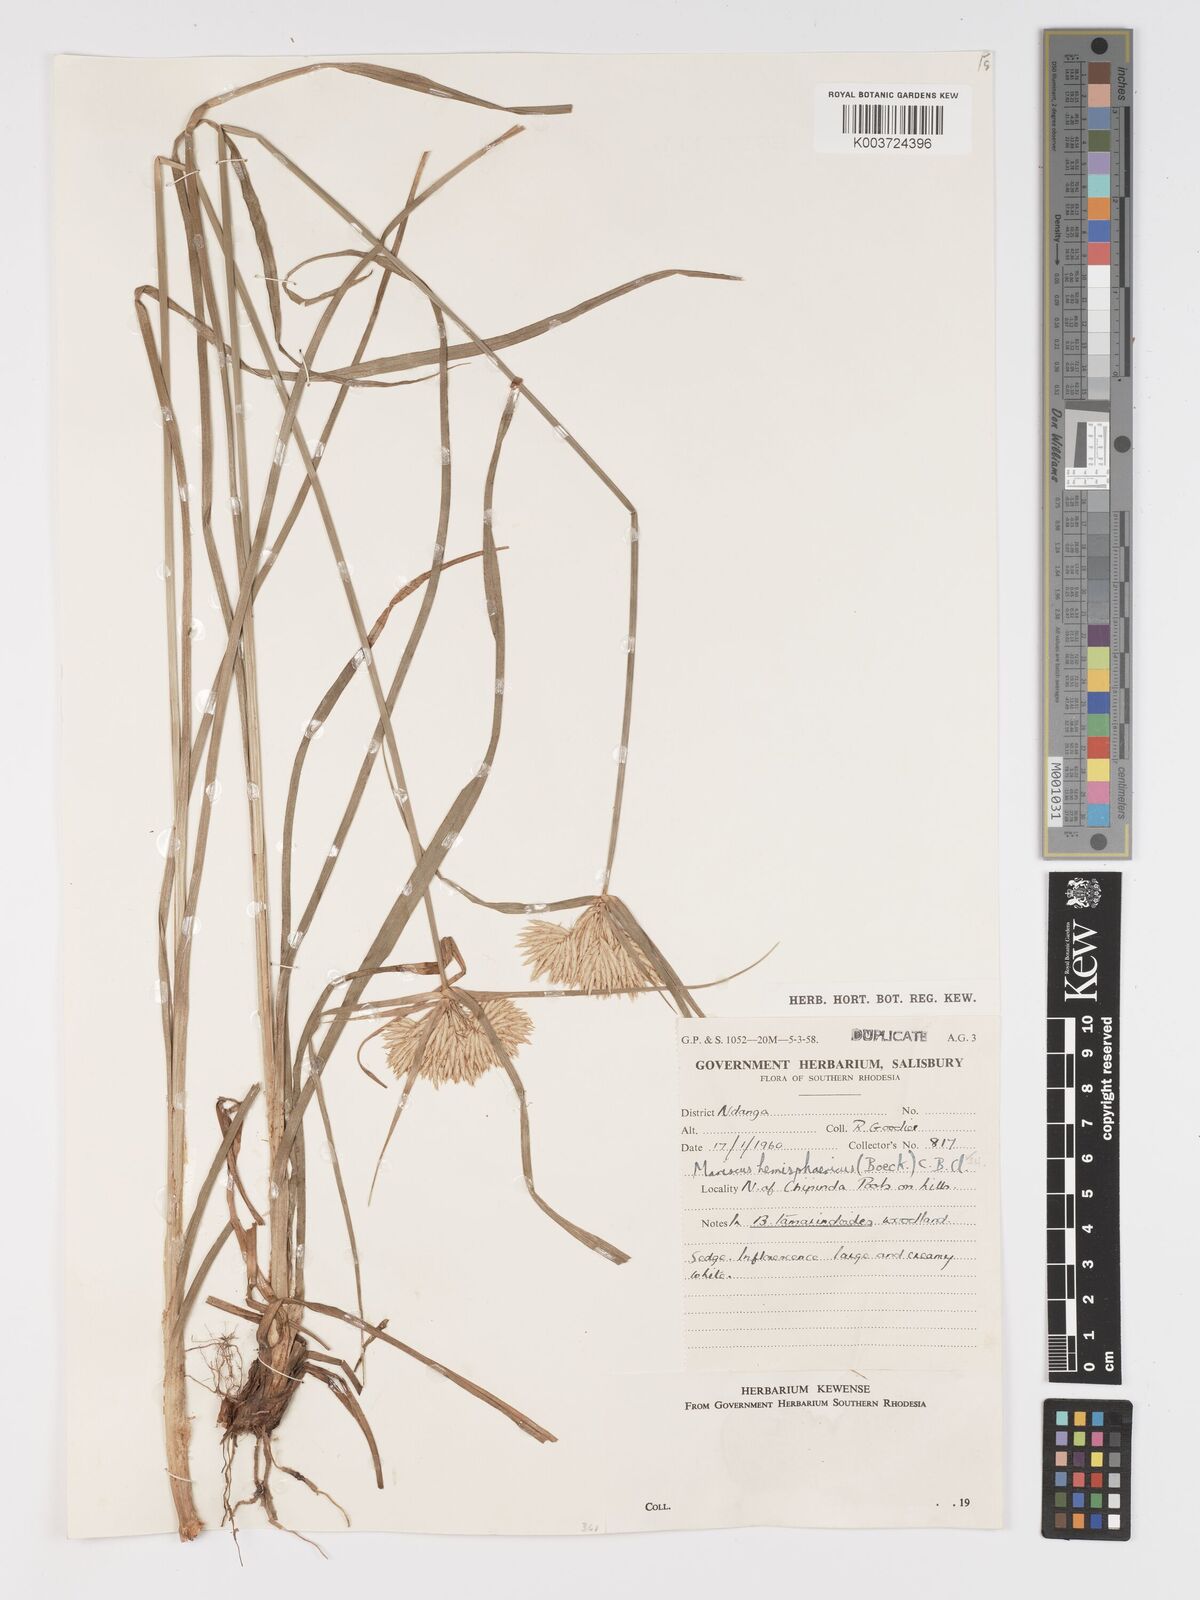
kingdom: Plantae
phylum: Tracheophyta
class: Liliopsida
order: Poales
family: Cyperaceae
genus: Cyperus
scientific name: Cyperus hemisphaericus
